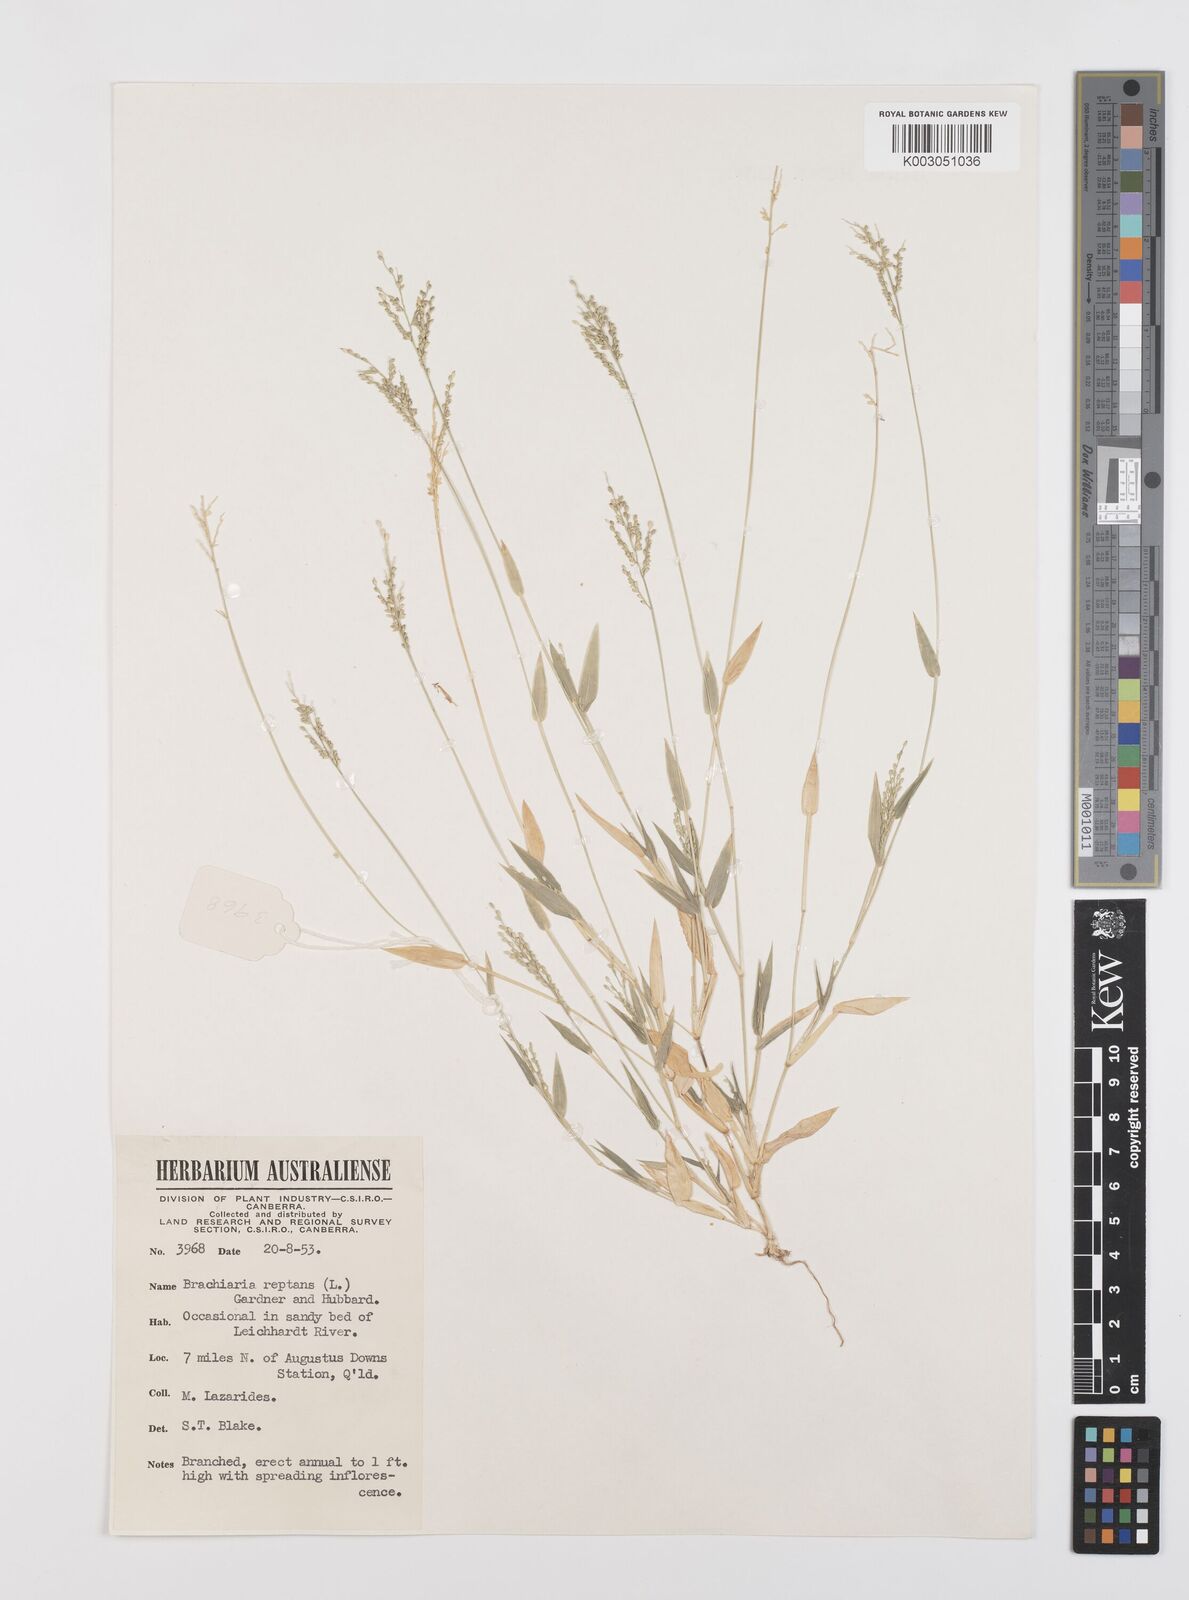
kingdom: Plantae
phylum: Tracheophyta
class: Liliopsida
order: Poales
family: Poaceae
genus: Urochloa
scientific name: Urochloa reptans
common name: Sprawling signalgrass
